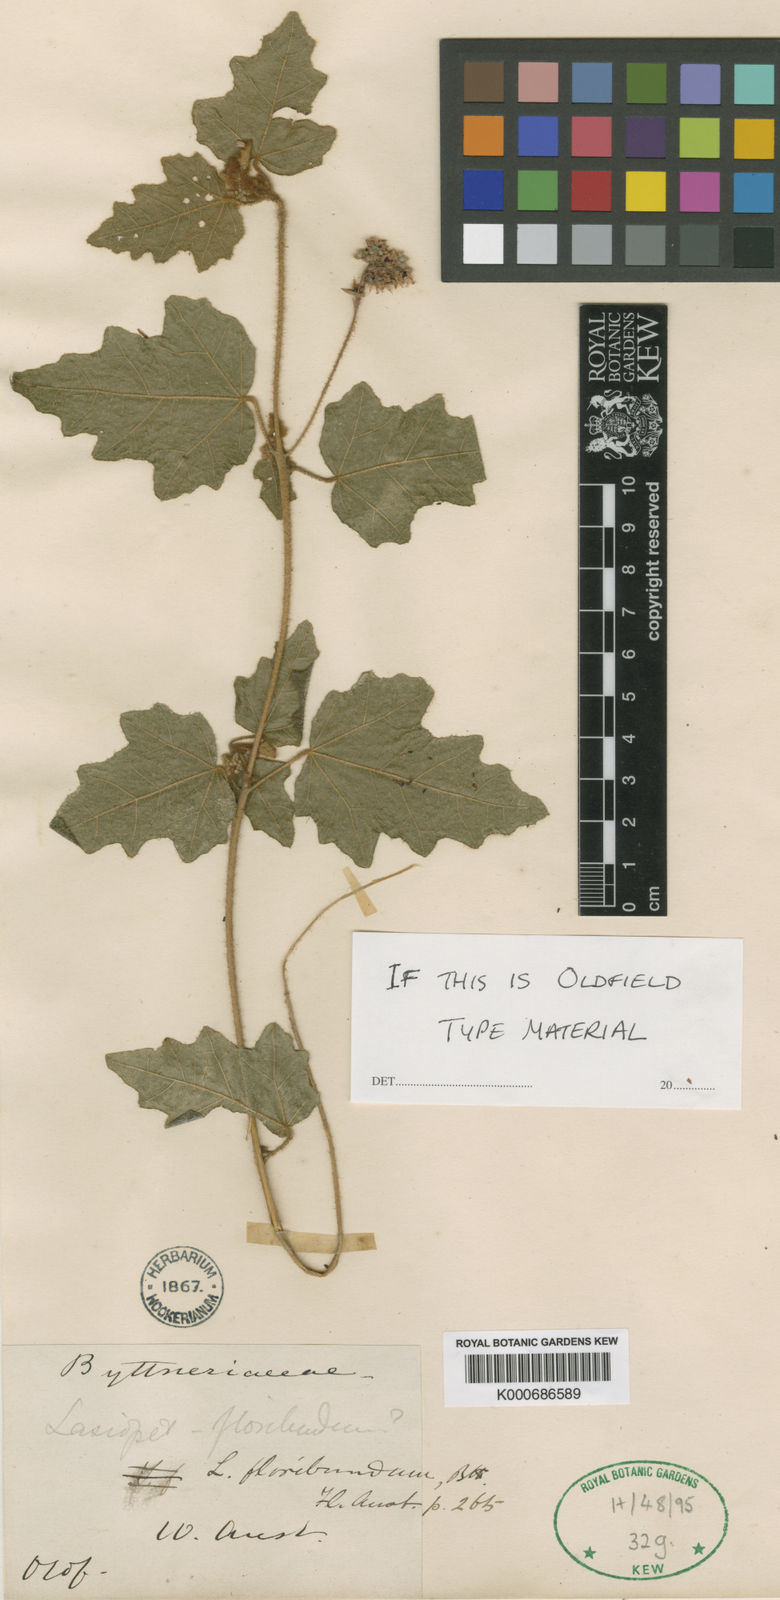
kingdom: Plantae
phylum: Tracheophyta
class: Magnoliopsida
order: Malvales
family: Malvaceae
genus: Lasiopetalum
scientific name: Lasiopetalum floribundum
